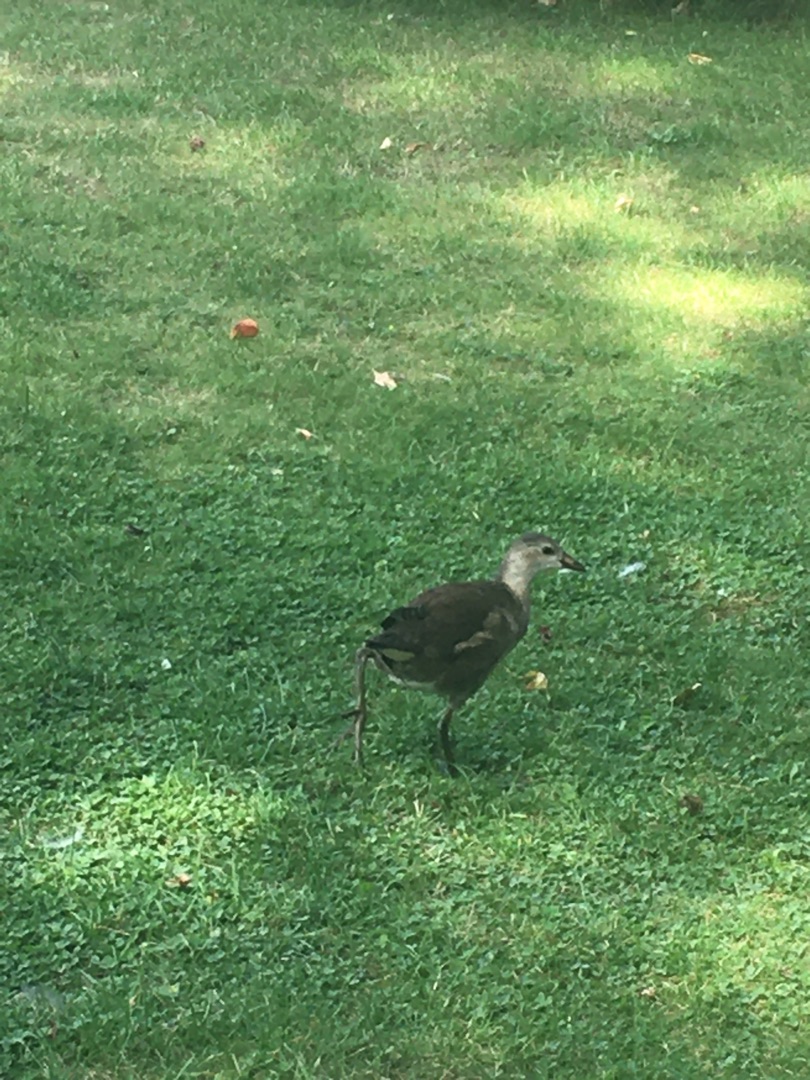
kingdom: Animalia
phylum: Chordata
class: Aves
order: Gruiformes
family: Rallidae
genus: Gallinula
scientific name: Gallinula chloropus
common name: Grønbenet rørhøne
